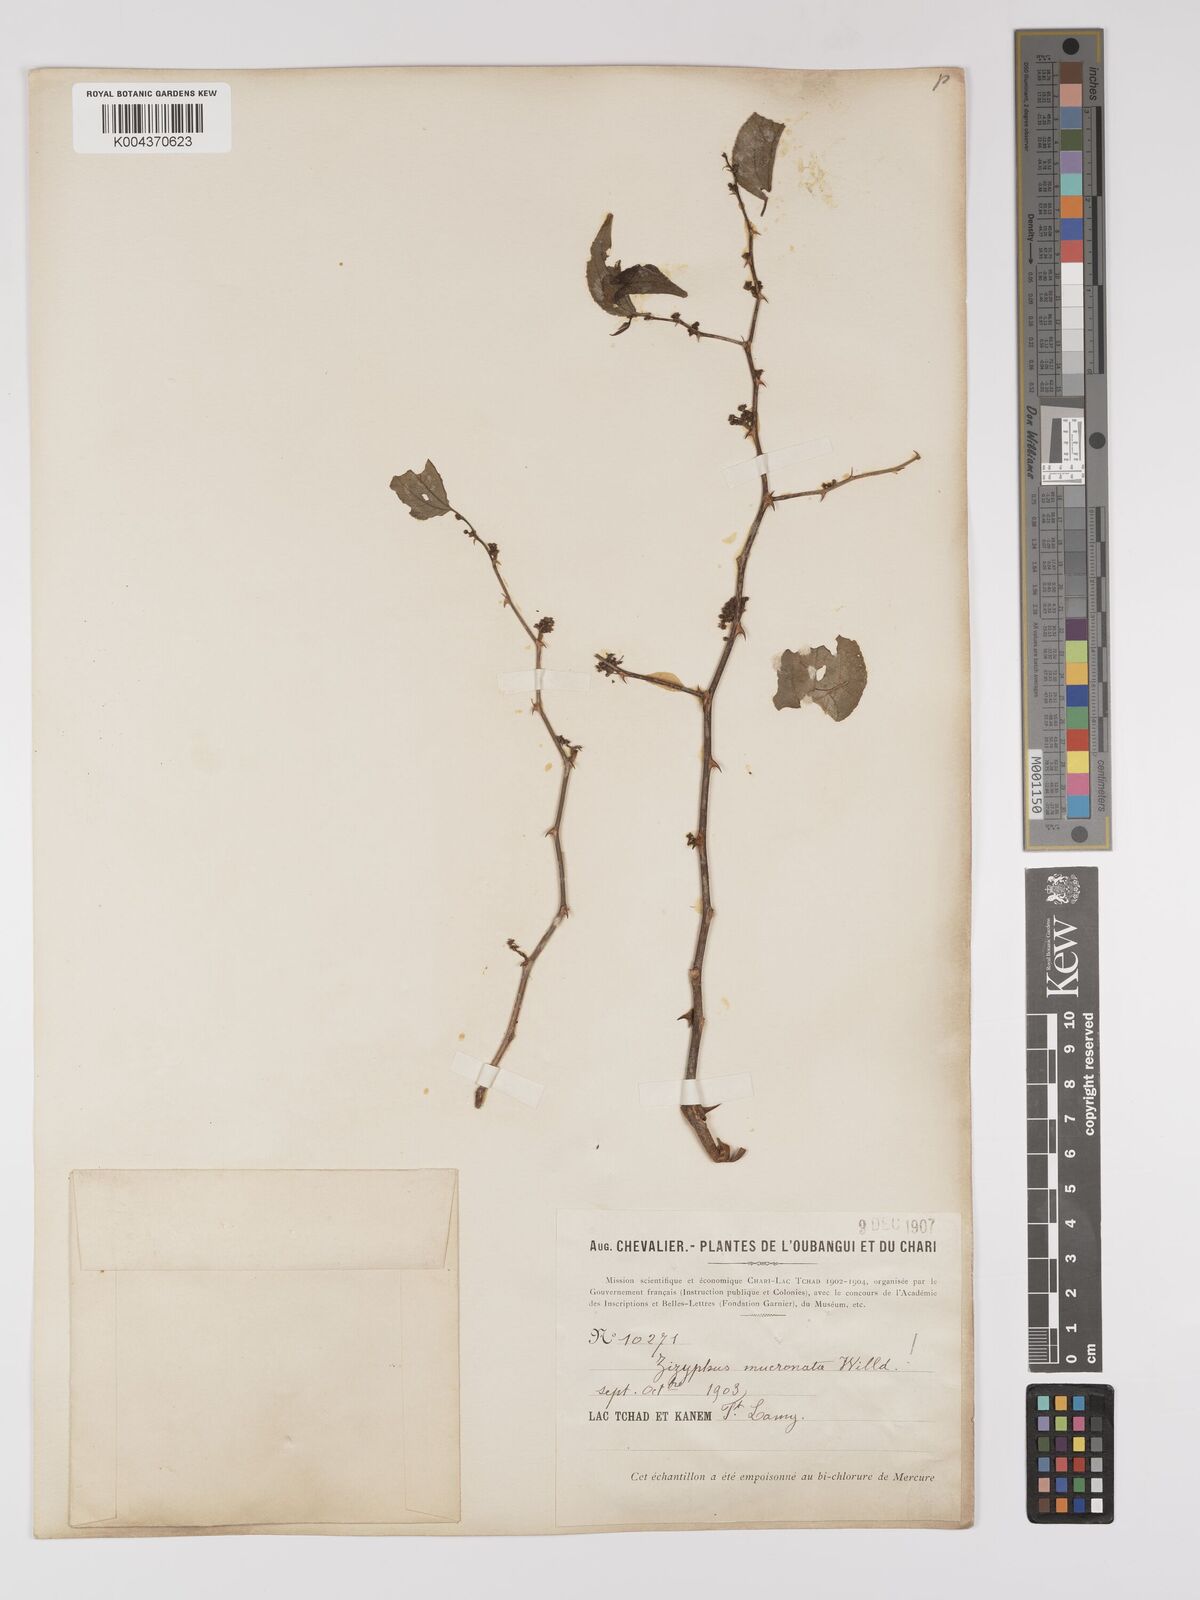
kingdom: Plantae
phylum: Tracheophyta
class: Magnoliopsida
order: Rosales
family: Rhamnaceae
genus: Ziziphus
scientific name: Ziziphus mucronata
